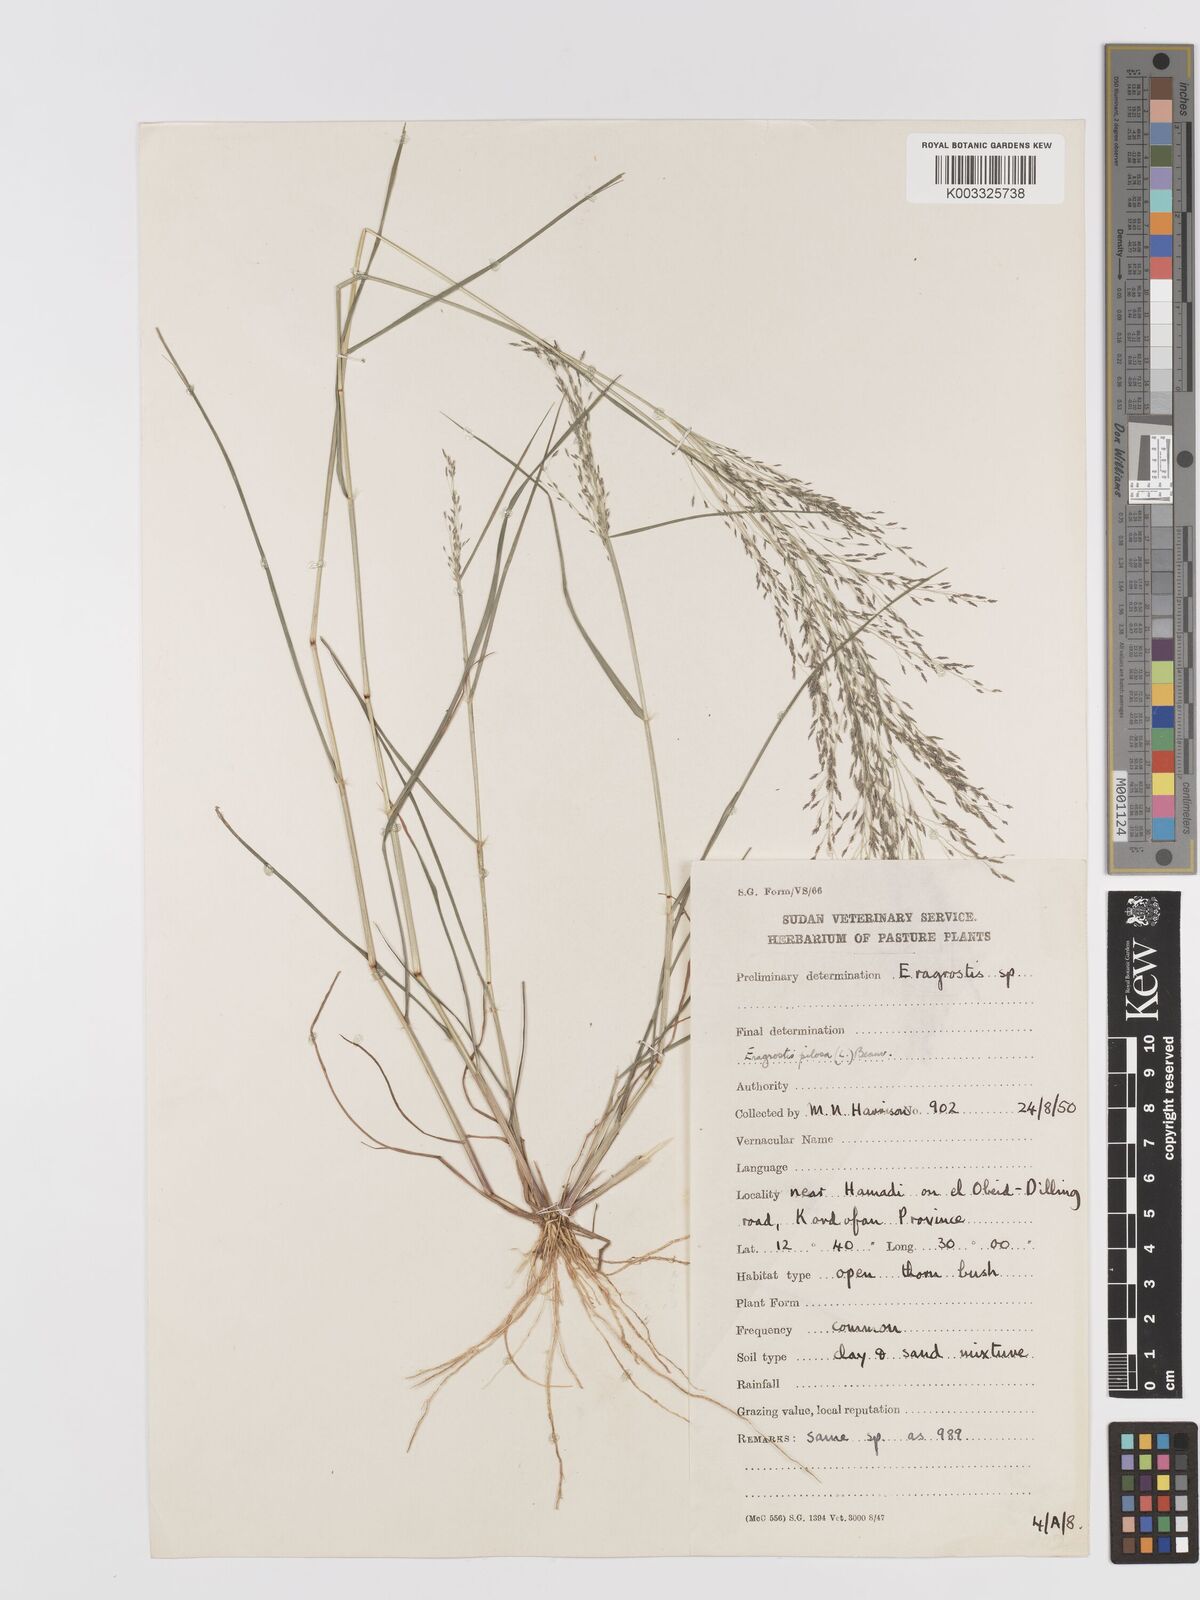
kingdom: Plantae
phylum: Tracheophyta
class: Liliopsida
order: Poales
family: Poaceae
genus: Eragrostis
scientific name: Eragrostis pilosa
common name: Indian lovegrass
